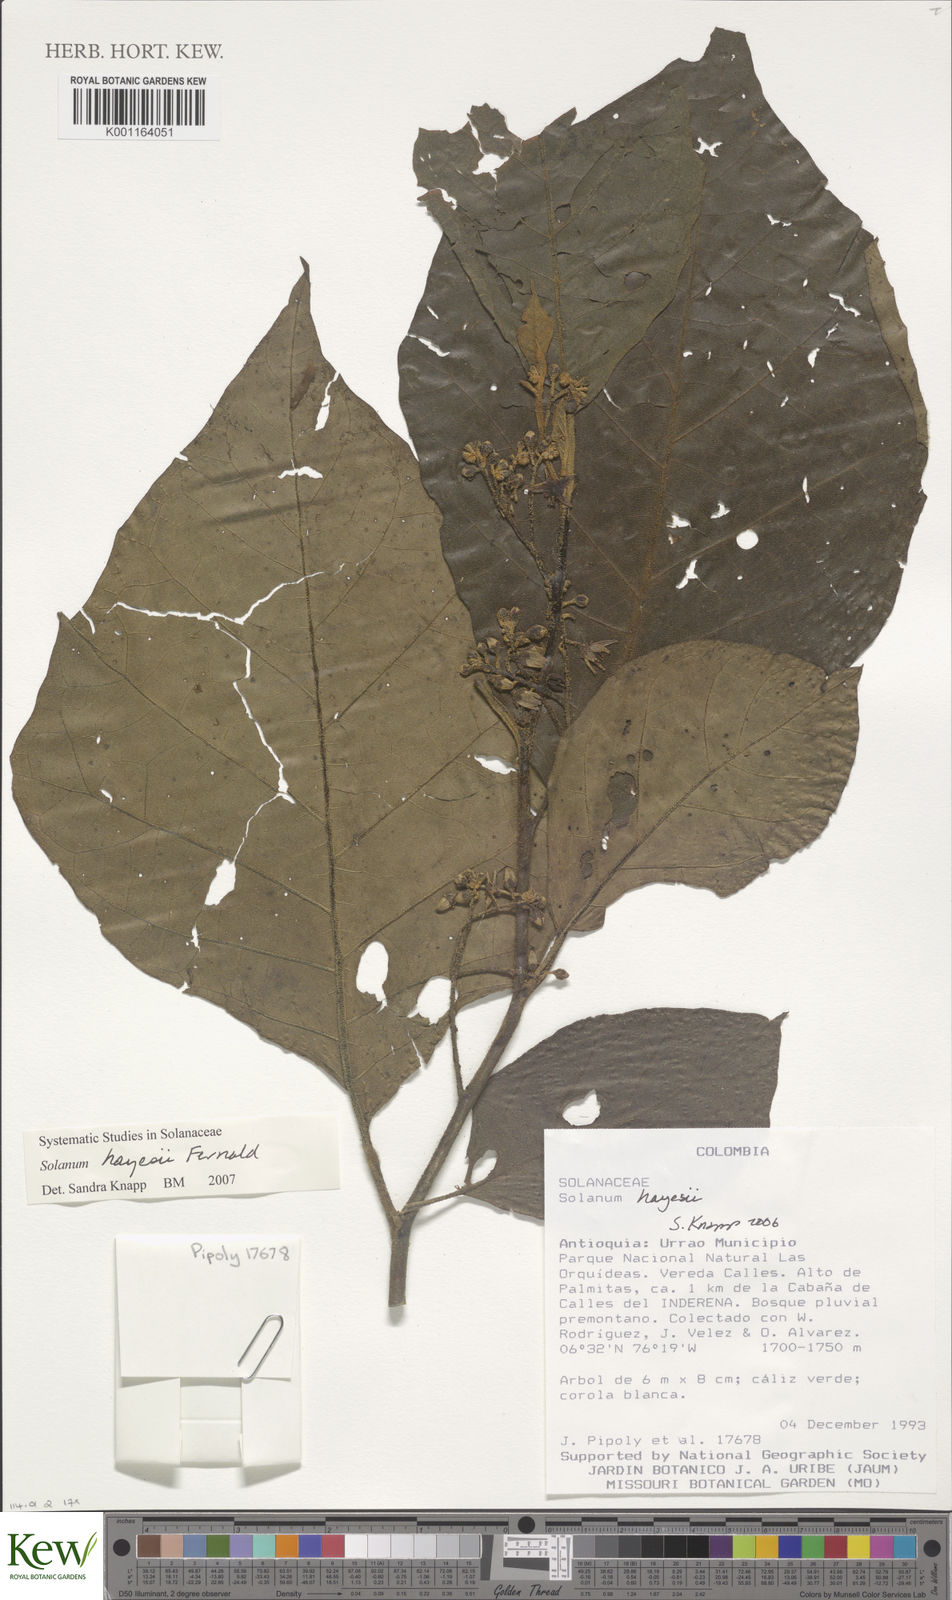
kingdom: Plantae
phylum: Tracheophyta
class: Magnoliopsida
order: Solanales
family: Solanaceae
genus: Solanum
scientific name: Solanum hayesii
